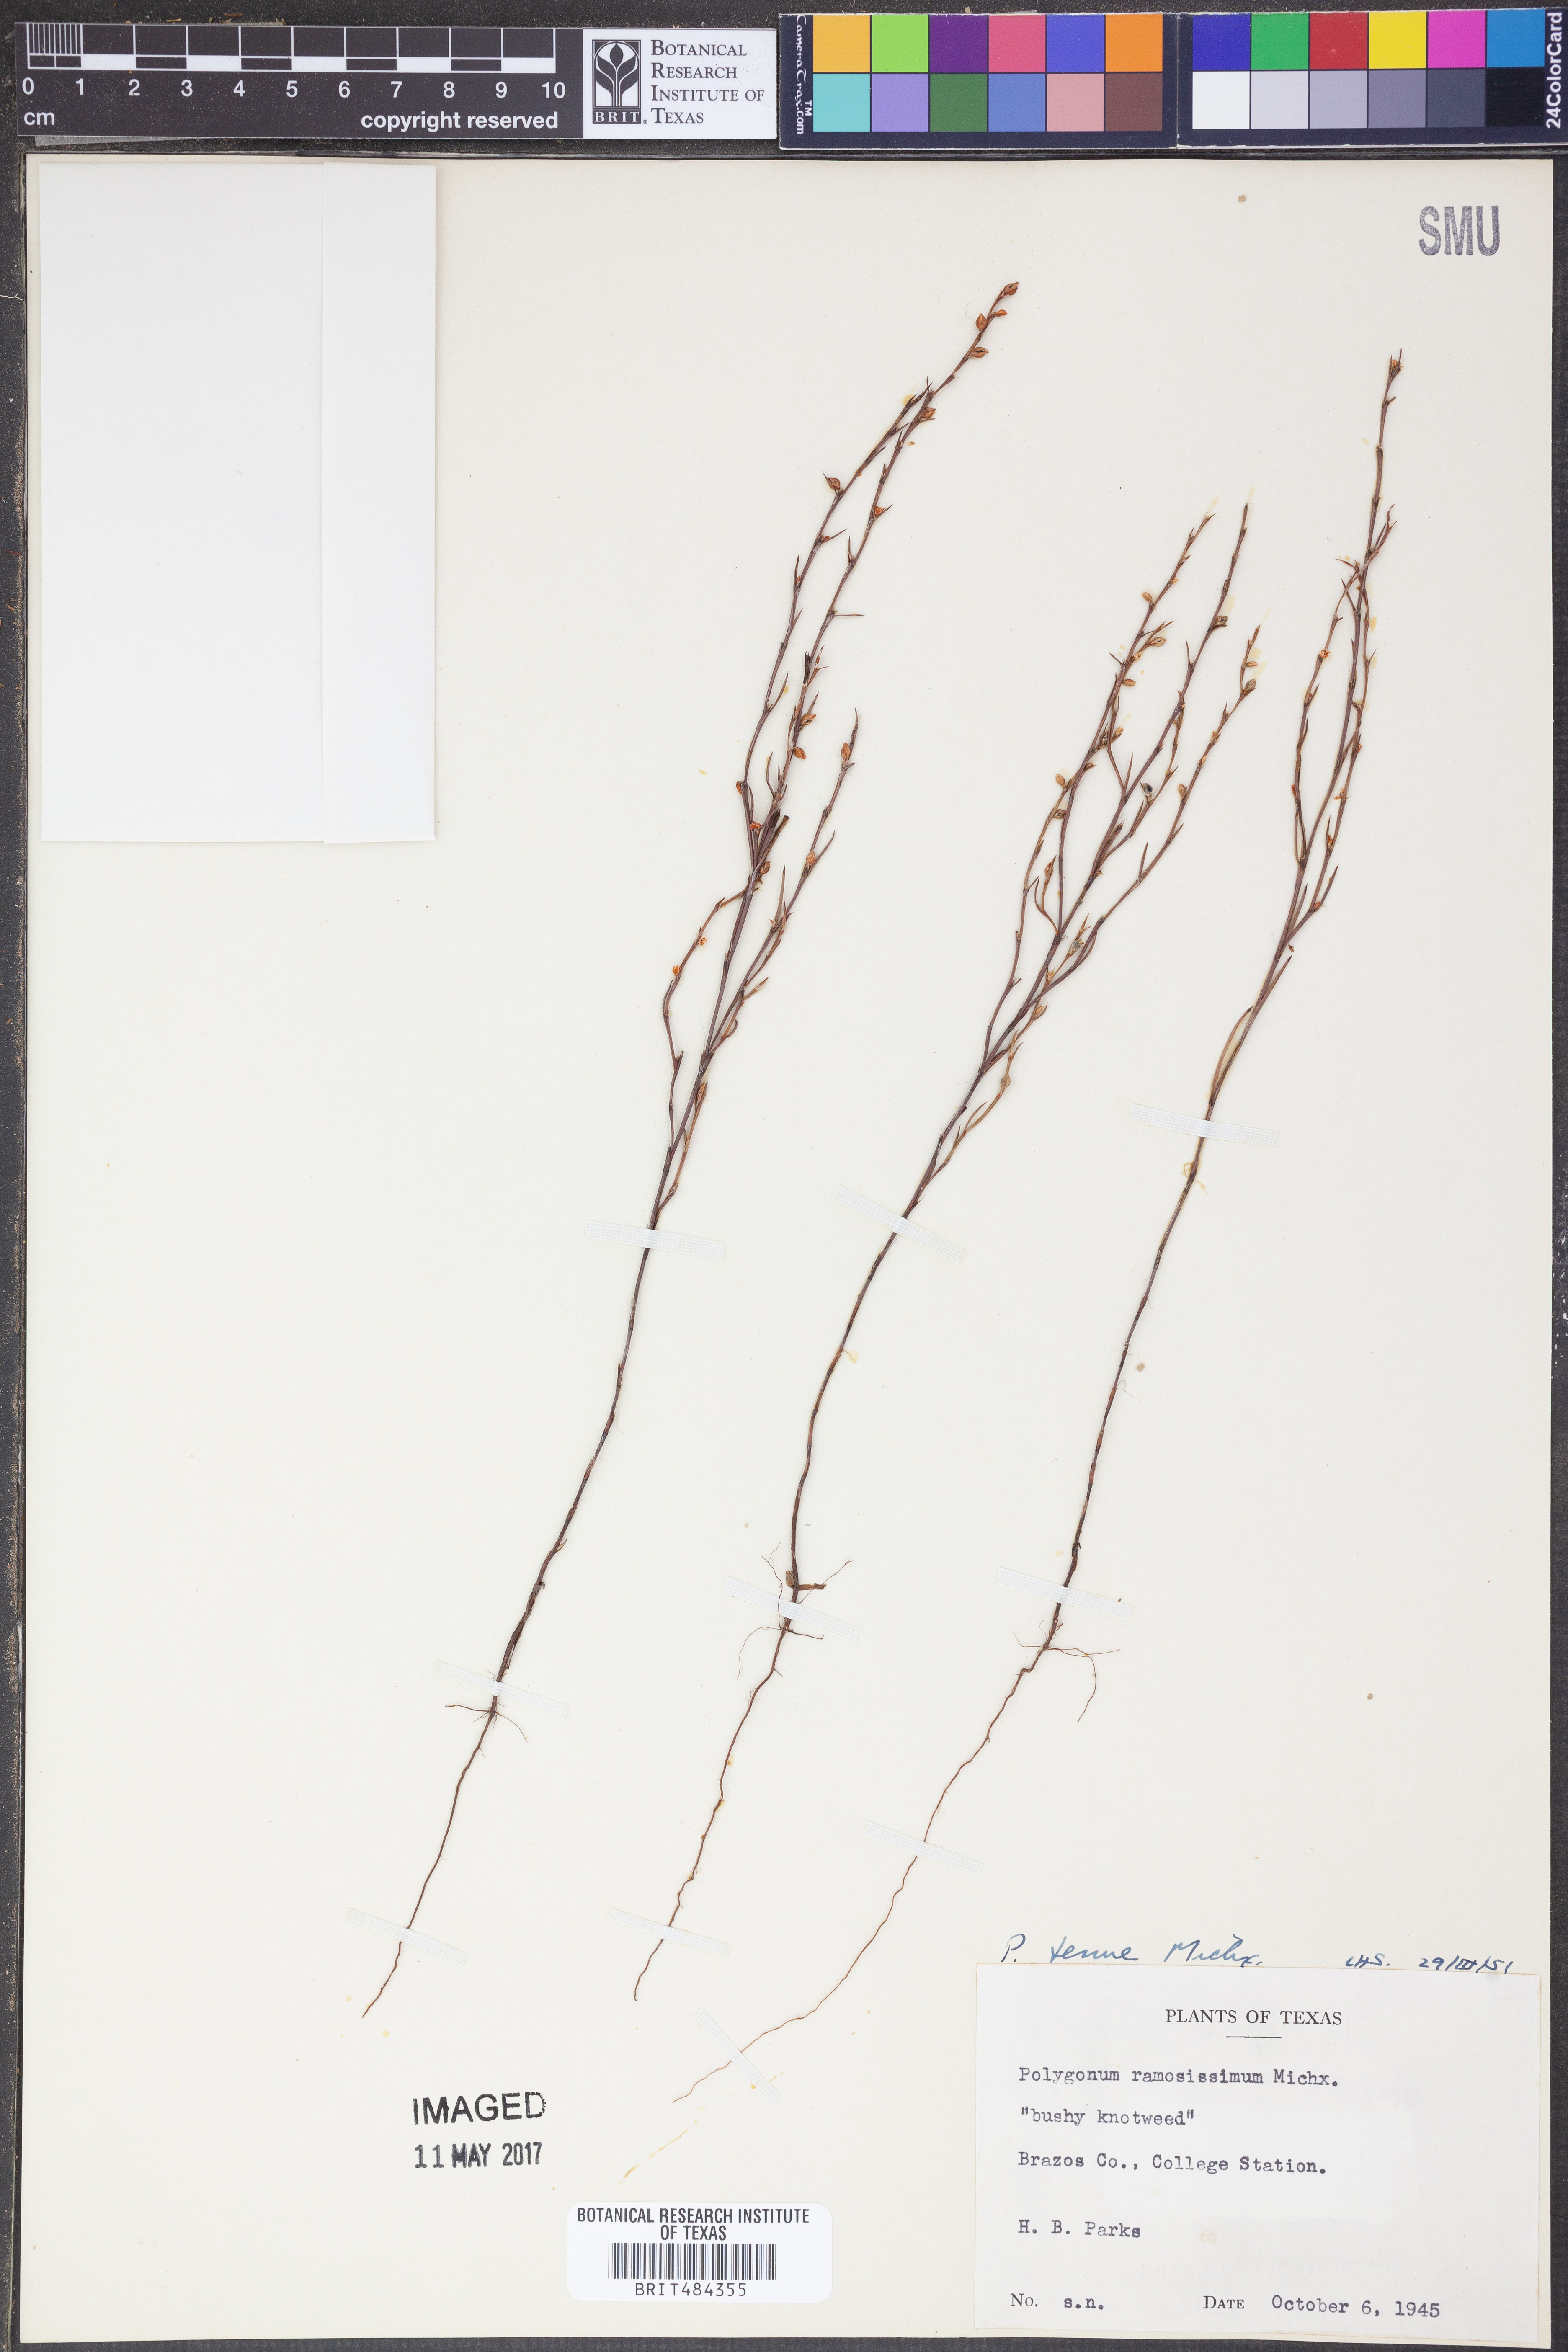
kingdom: Plantae
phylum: Tracheophyta
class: Magnoliopsida
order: Caryophyllales
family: Polygonaceae
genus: Polygonum
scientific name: Polygonum ramosissimum
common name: Bushy knotweed
